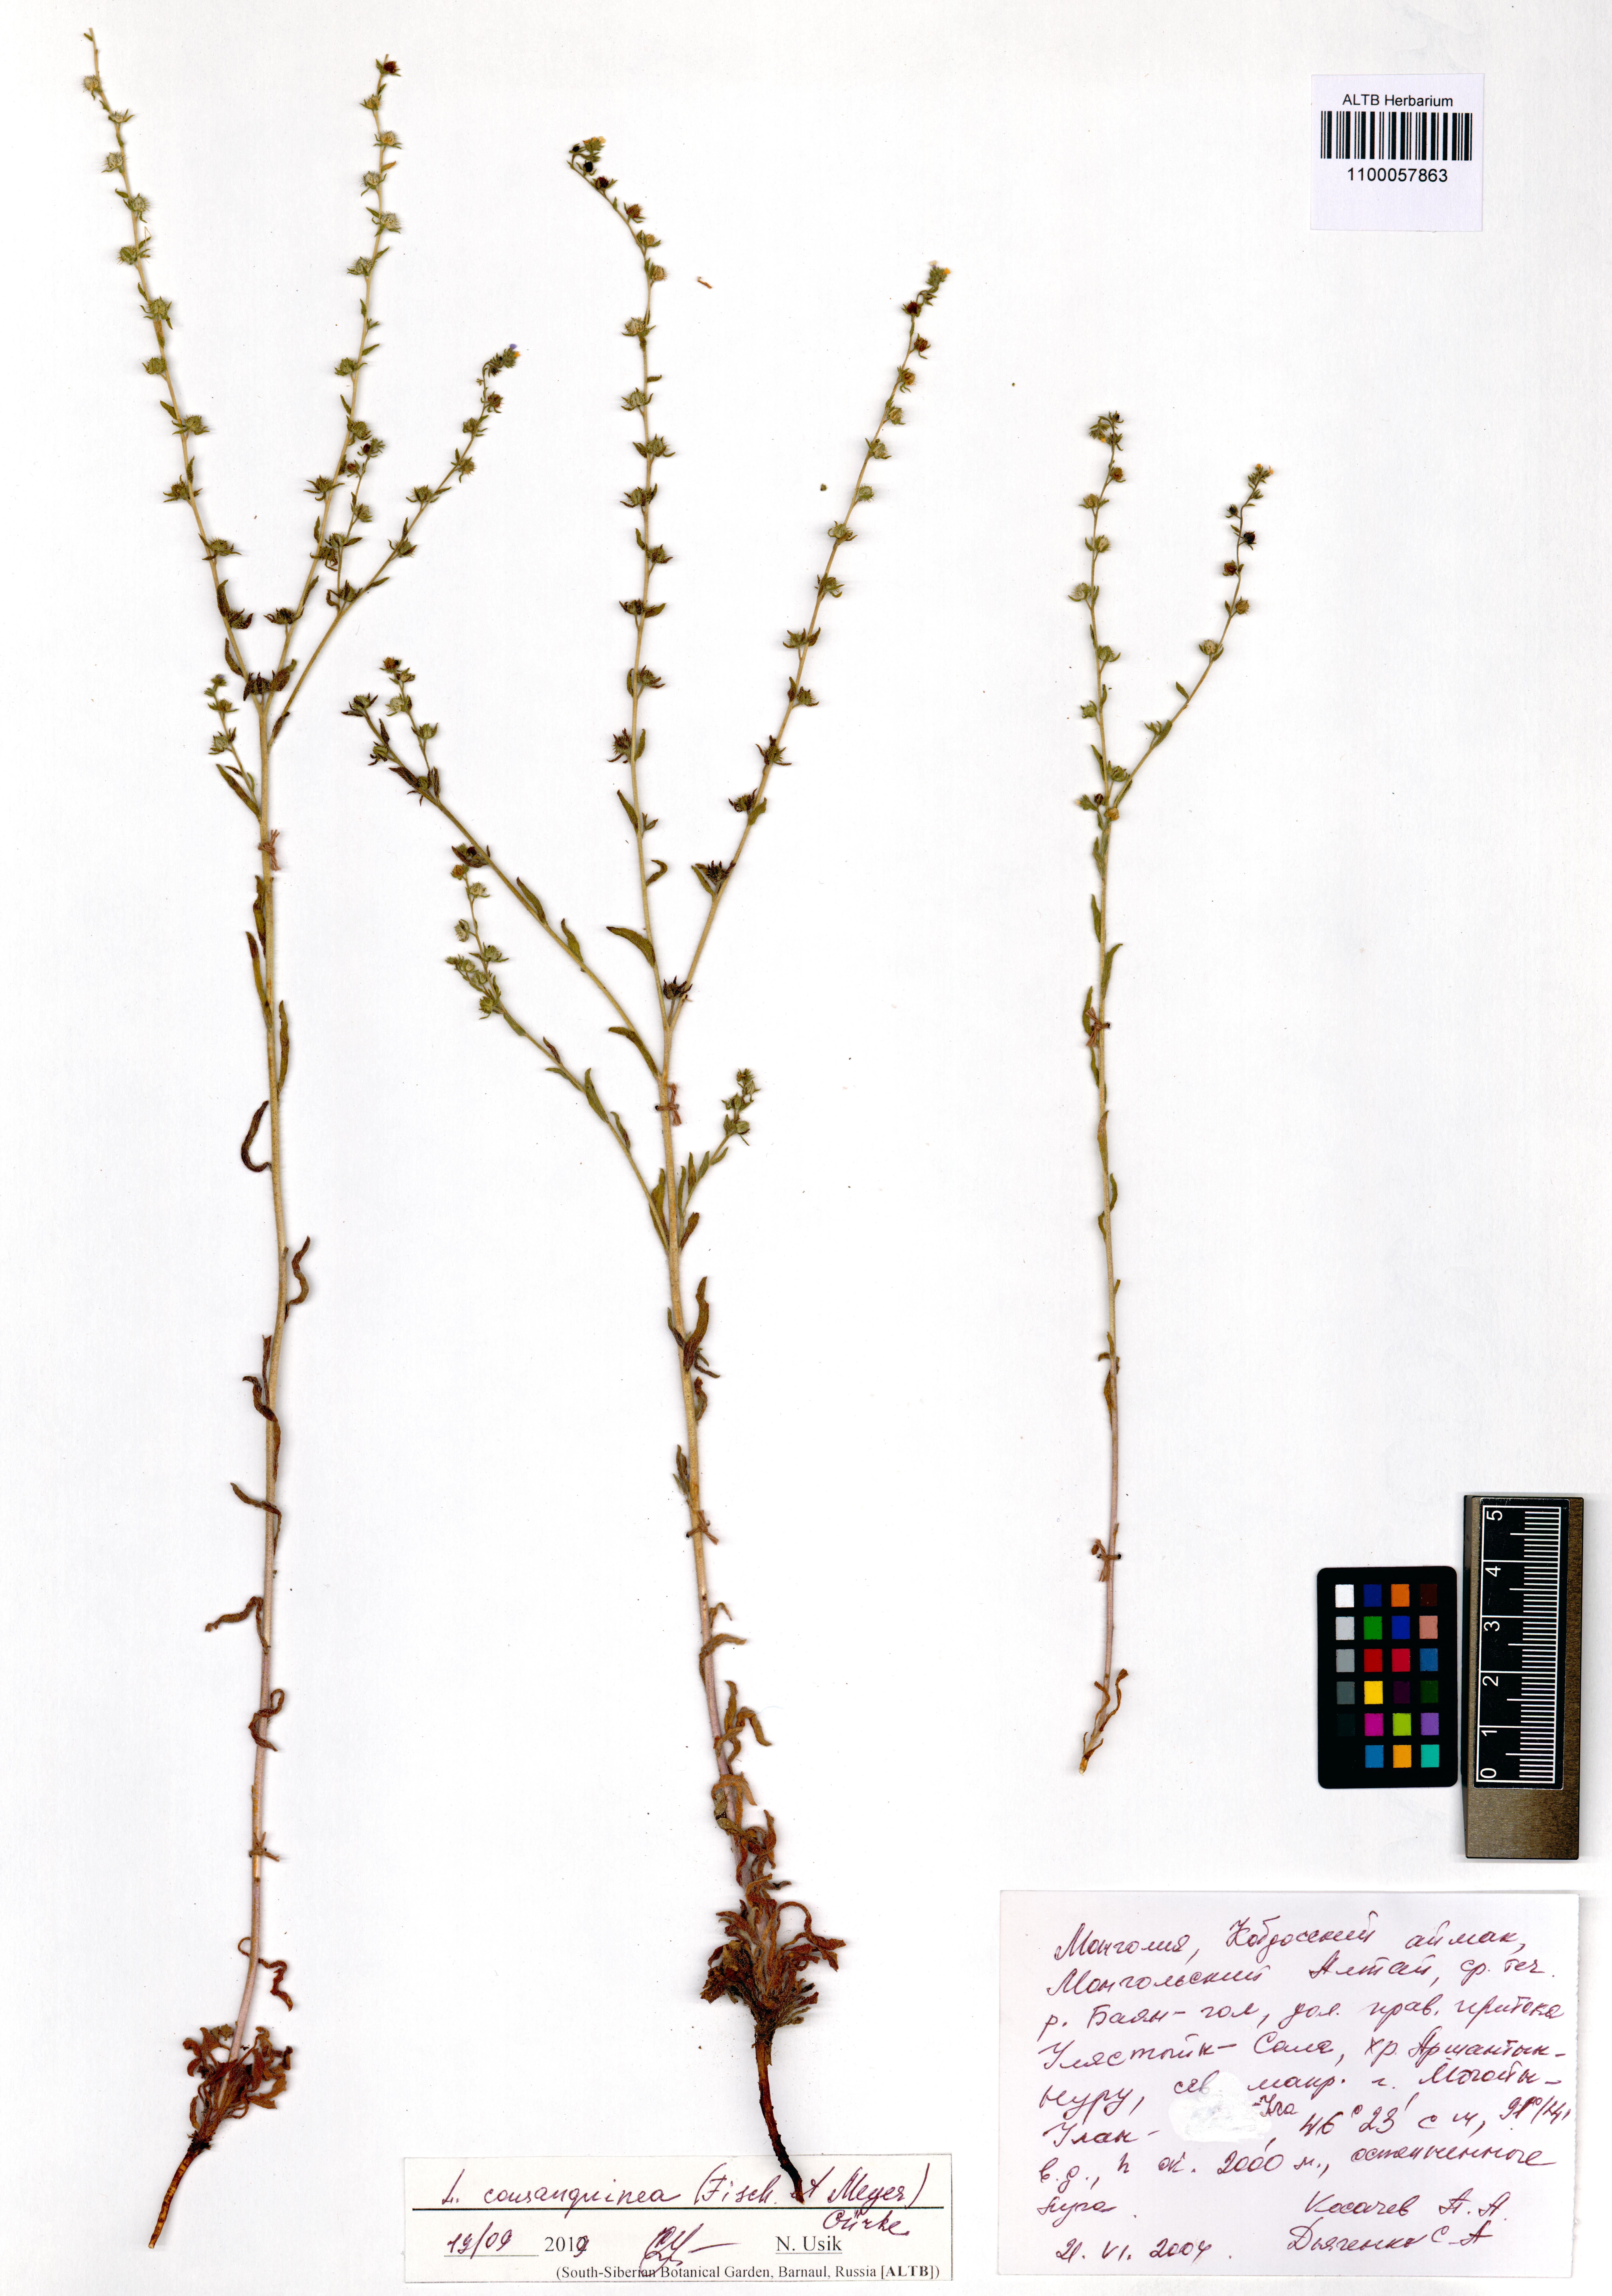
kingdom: Plantae
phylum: Tracheophyta
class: Magnoliopsida
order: Boraginales
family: Boraginaceae
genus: Lappula
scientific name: Lappula squarrosa
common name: European stickseed
